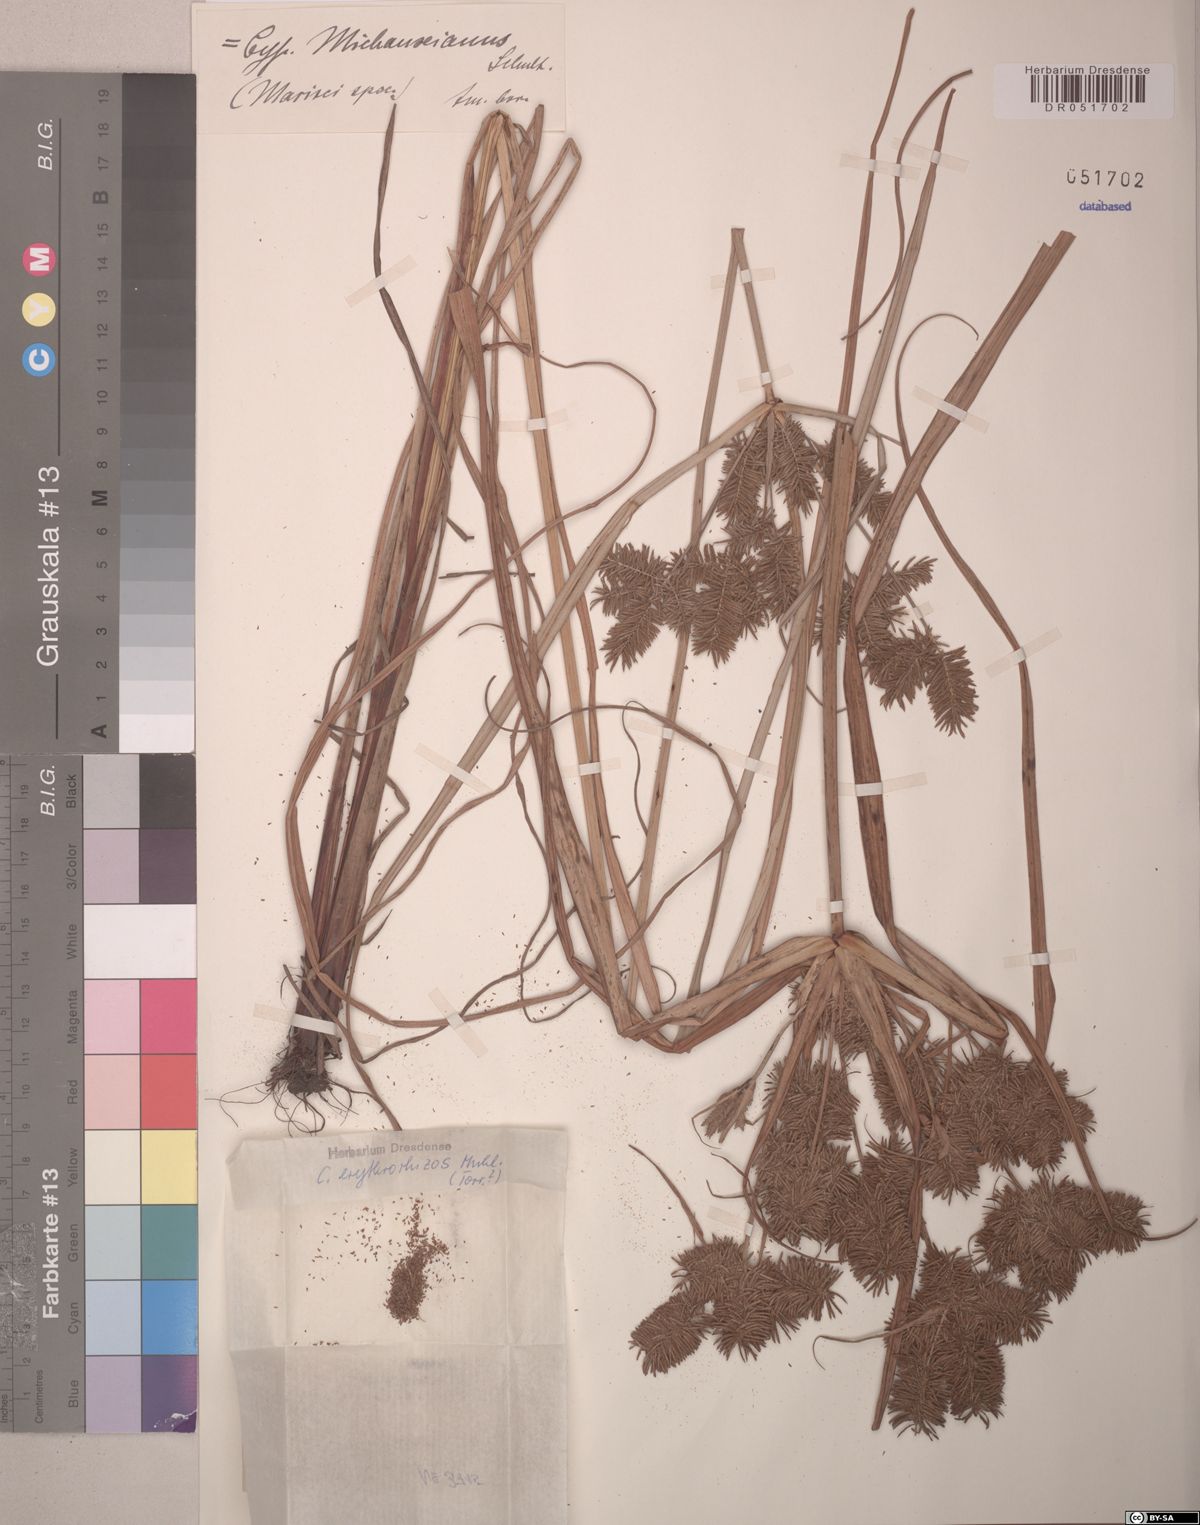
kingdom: Plantae
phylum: Tracheophyta
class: Liliopsida
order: Poales
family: Cyperaceae
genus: Cyperus
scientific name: Cyperus odoratus
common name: Fragrant flatsedge
